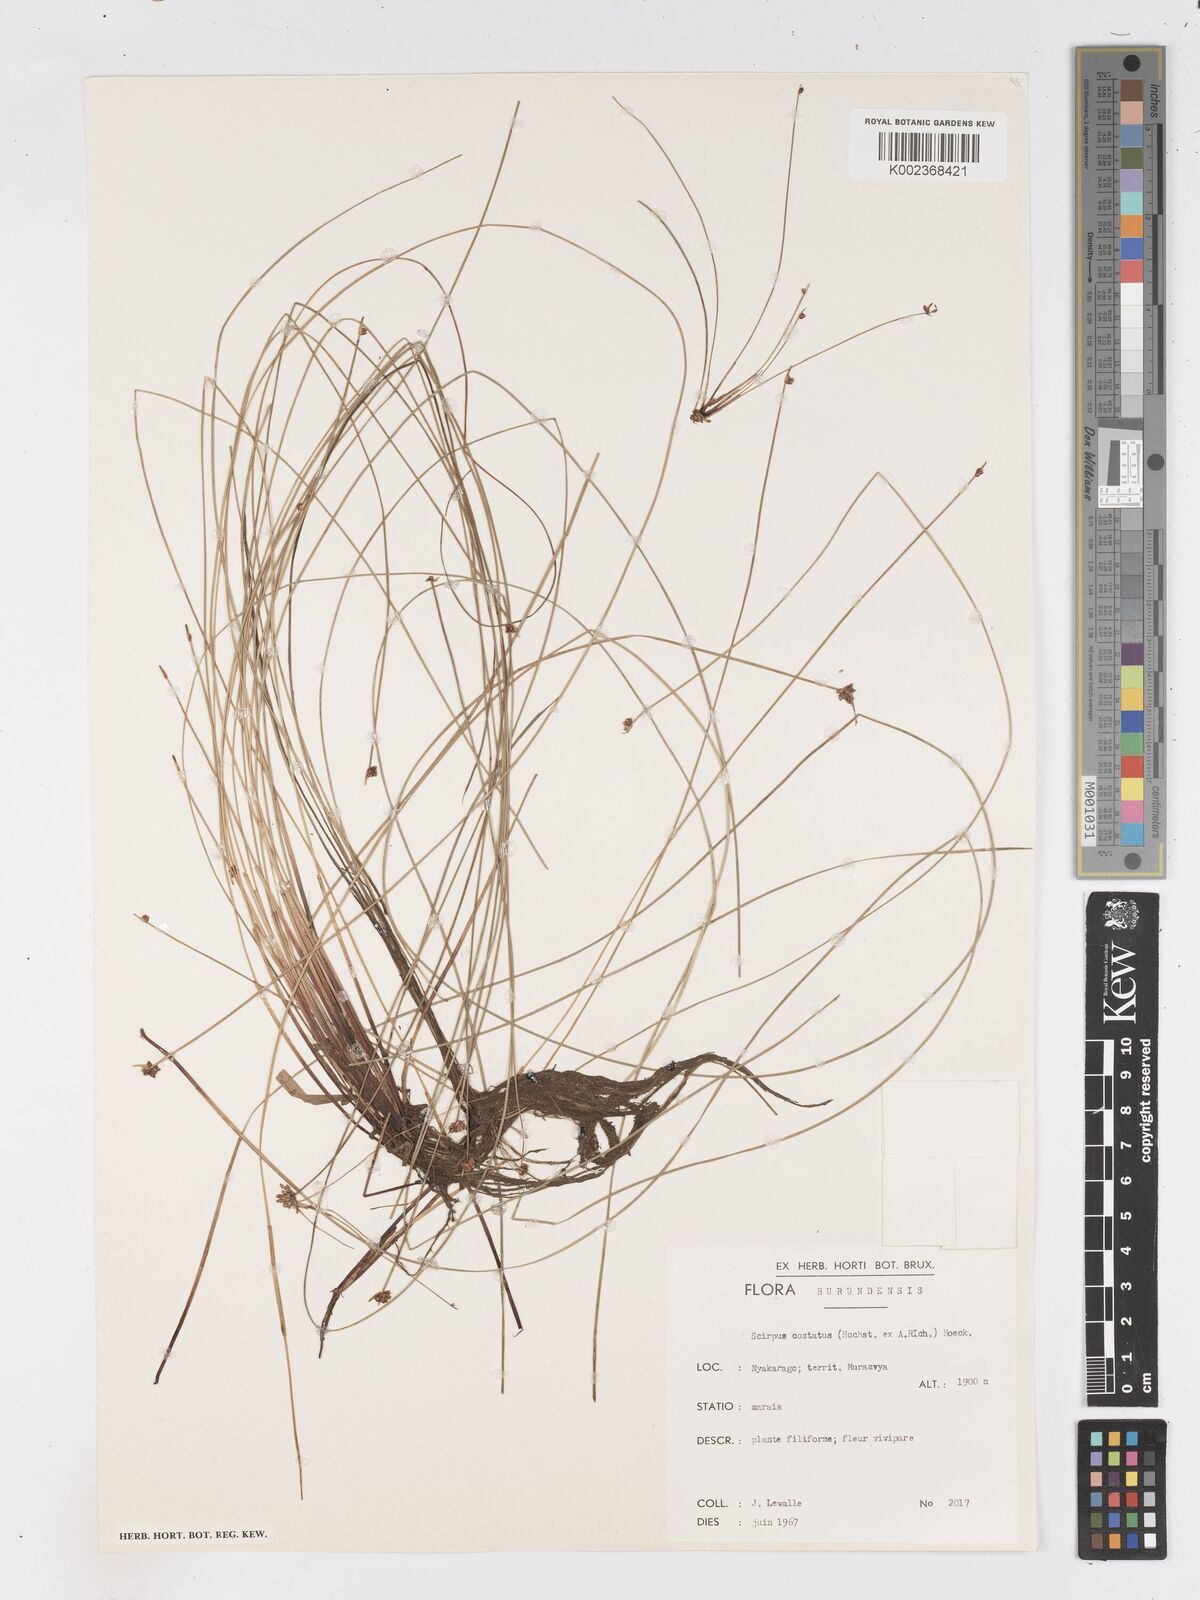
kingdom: Plantae
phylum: Tracheophyta
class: Liliopsida
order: Poales
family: Cyperaceae
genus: Isolepis
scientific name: Isolepis costata
